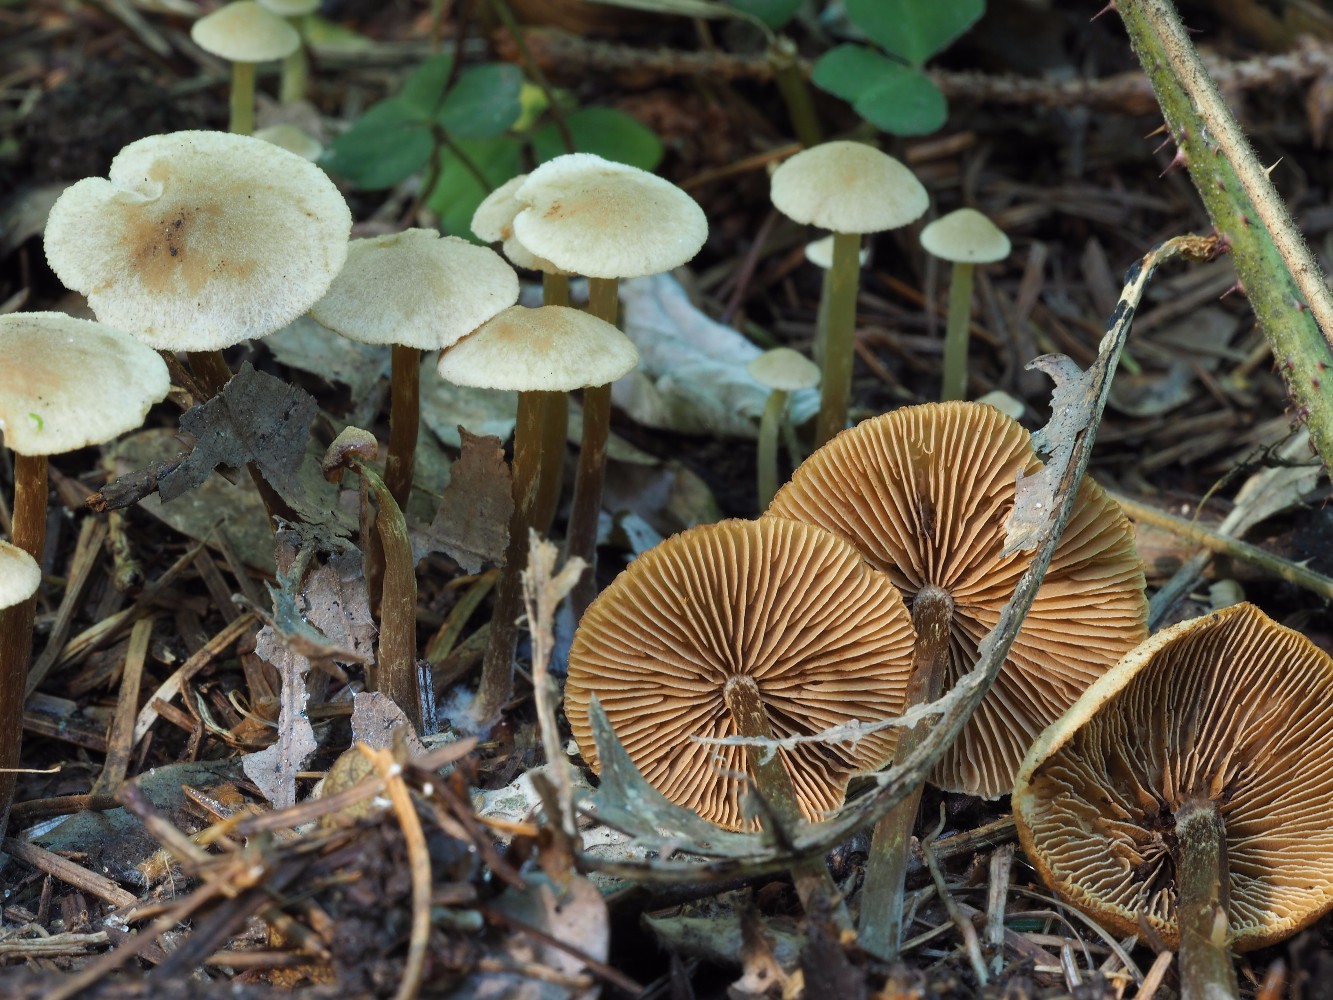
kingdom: Fungi
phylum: Basidiomycota
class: Agaricomycetes
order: Agaricales
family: Hymenogastraceae
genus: Naucoria
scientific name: Naucoria escharioides
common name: lys elle-knaphat
